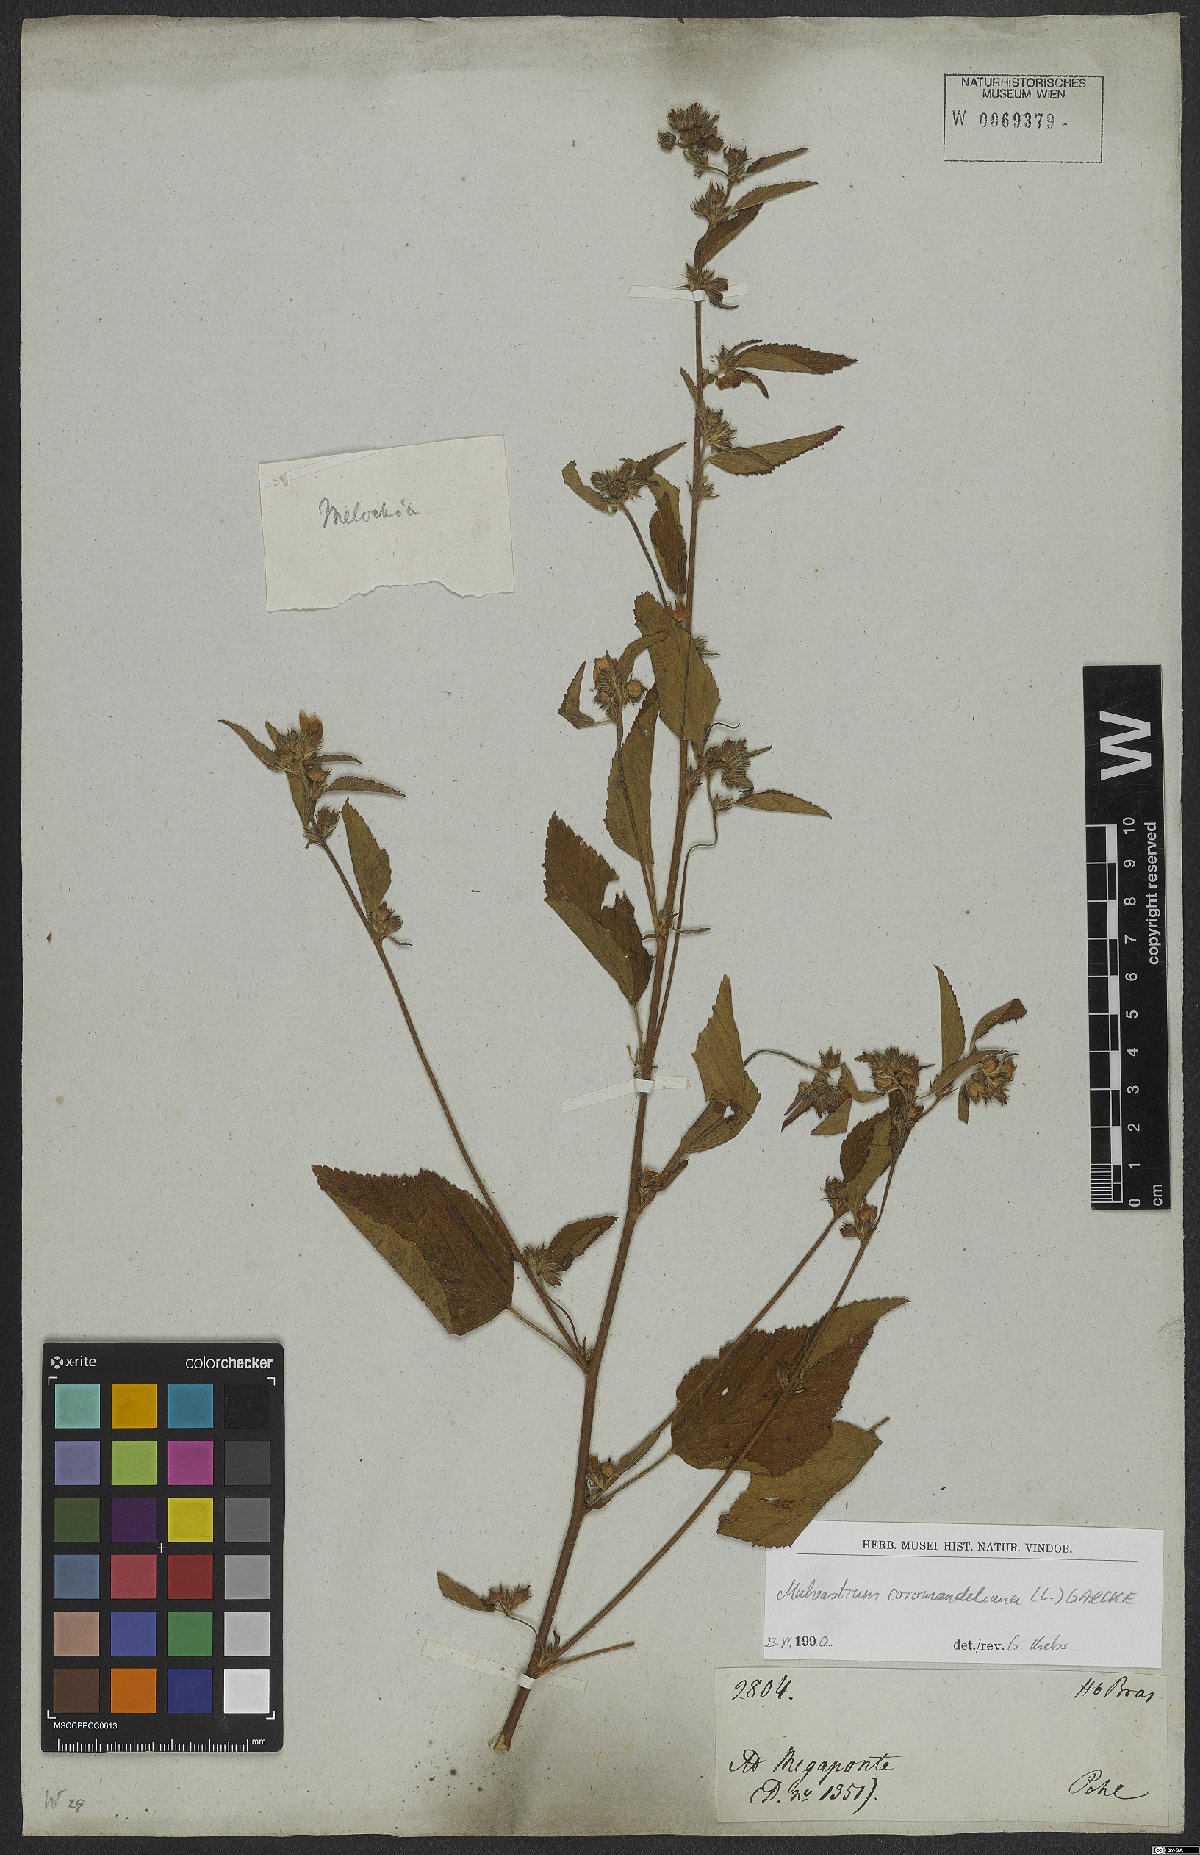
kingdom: Plantae
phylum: Tracheophyta
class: Magnoliopsida
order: Malvales
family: Malvaceae
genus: Malvastrum
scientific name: Malvastrum coromandelianum
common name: Threelobe false mallow
